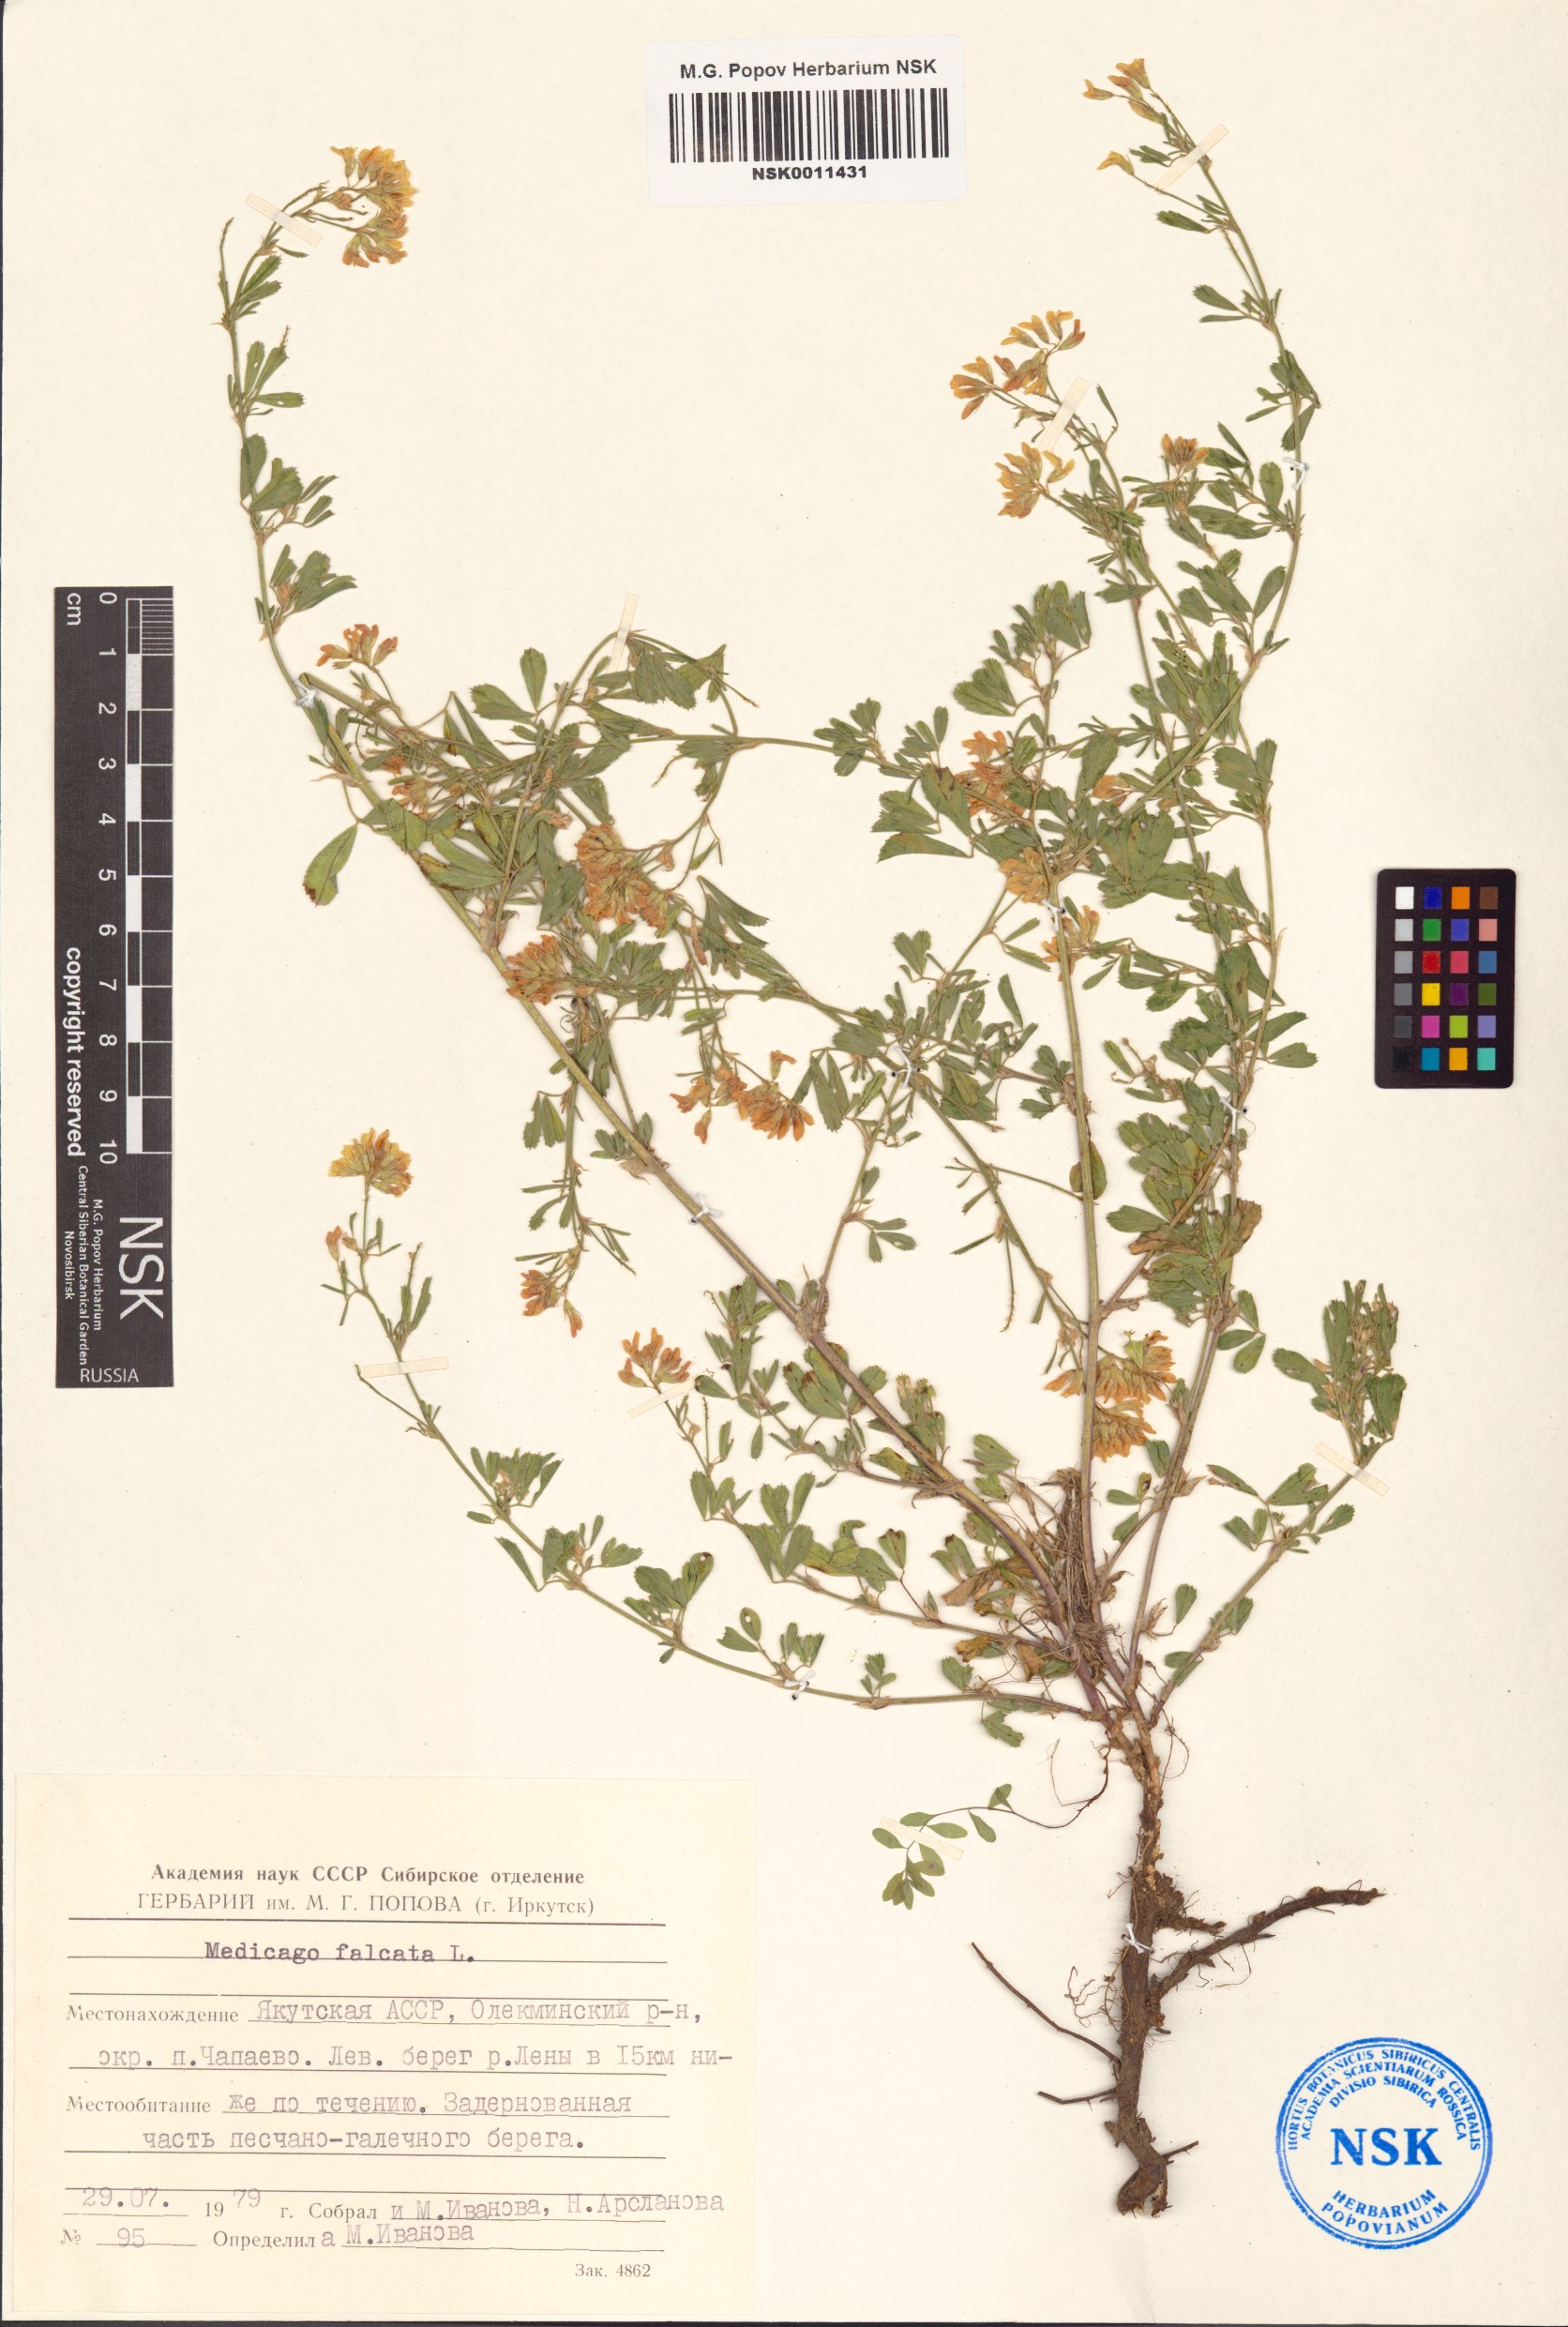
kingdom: Plantae
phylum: Tracheophyta
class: Magnoliopsida
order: Fabales
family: Fabaceae
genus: Medicago
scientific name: Medicago falcata
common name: Sickle medick
